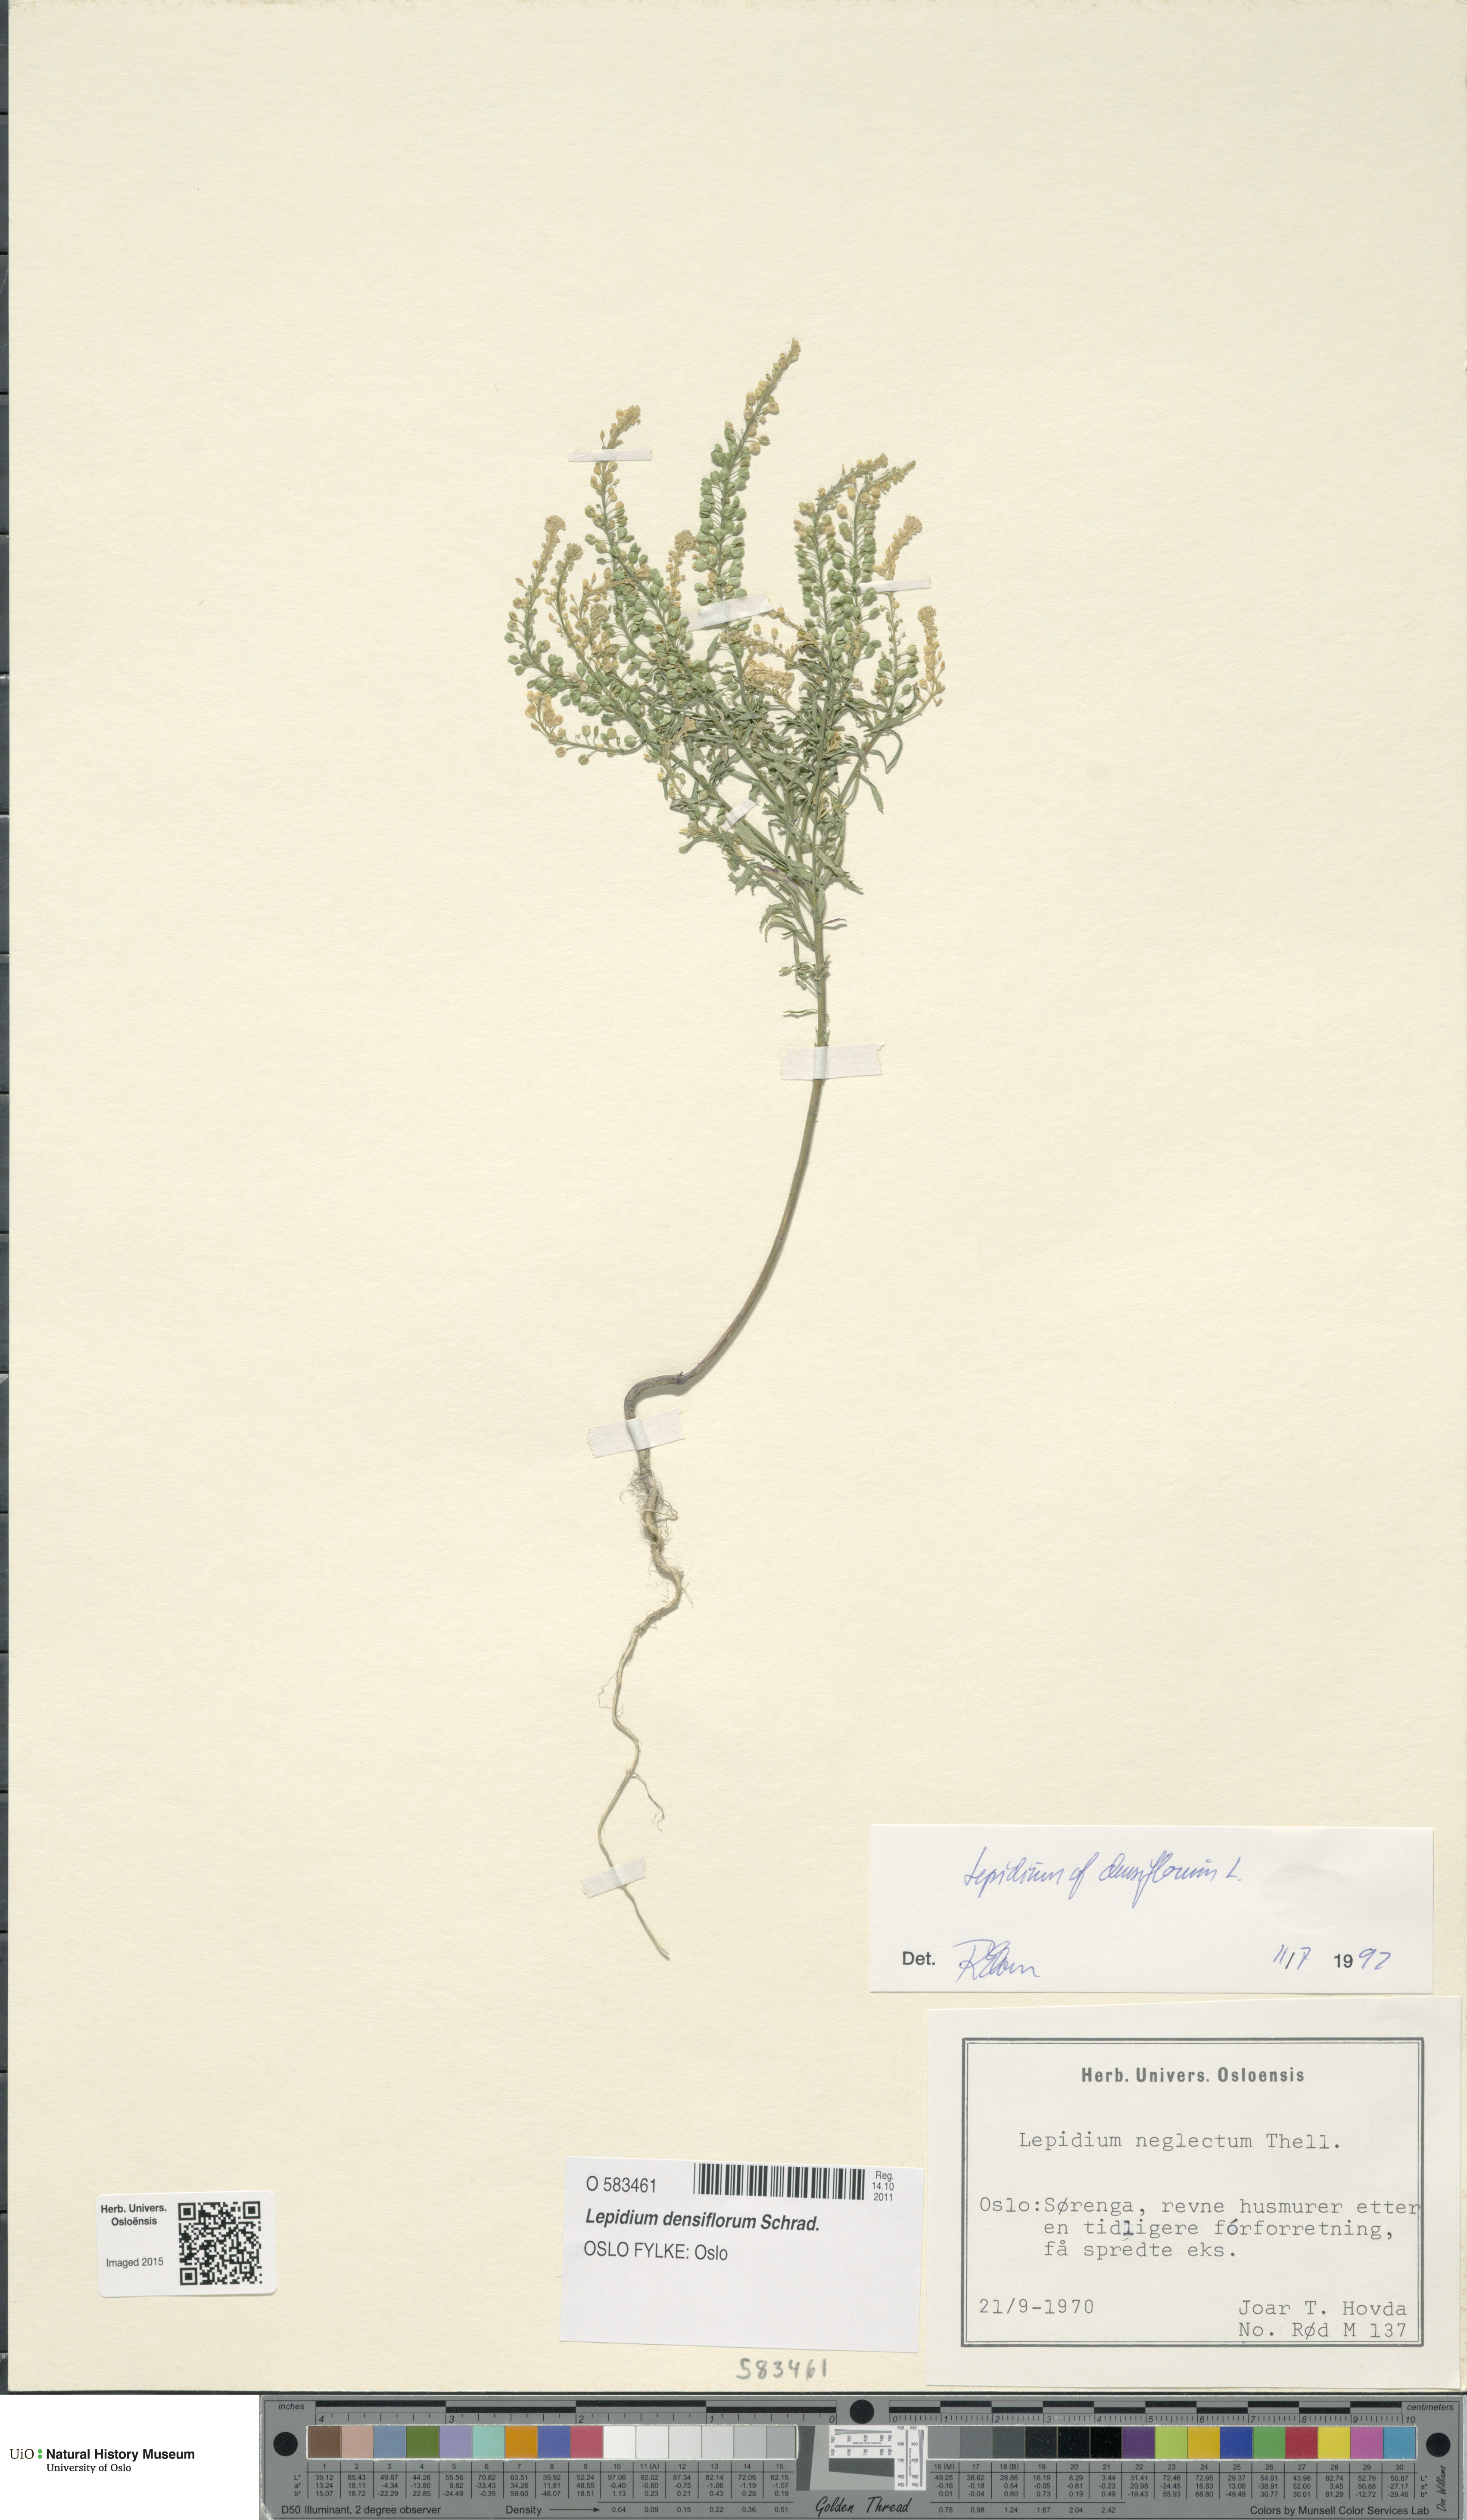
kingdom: Plantae
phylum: Tracheophyta
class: Magnoliopsida
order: Brassicales
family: Brassicaceae
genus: Lepidium
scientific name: Lepidium densiflorum
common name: Miner's pepperwort
